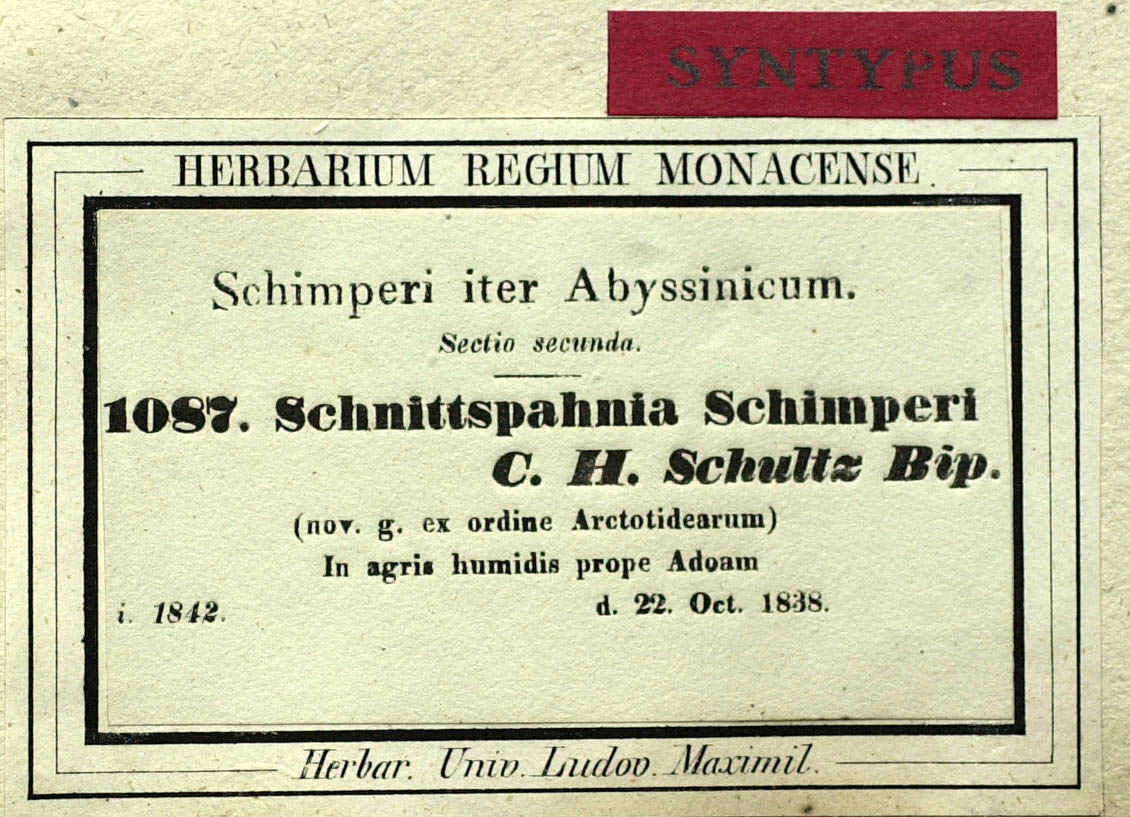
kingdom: Plantae
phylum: Tracheophyta
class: Magnoliopsida
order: Asterales
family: Asteraceae
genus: Haplocarpha
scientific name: Haplocarpha schimperi
